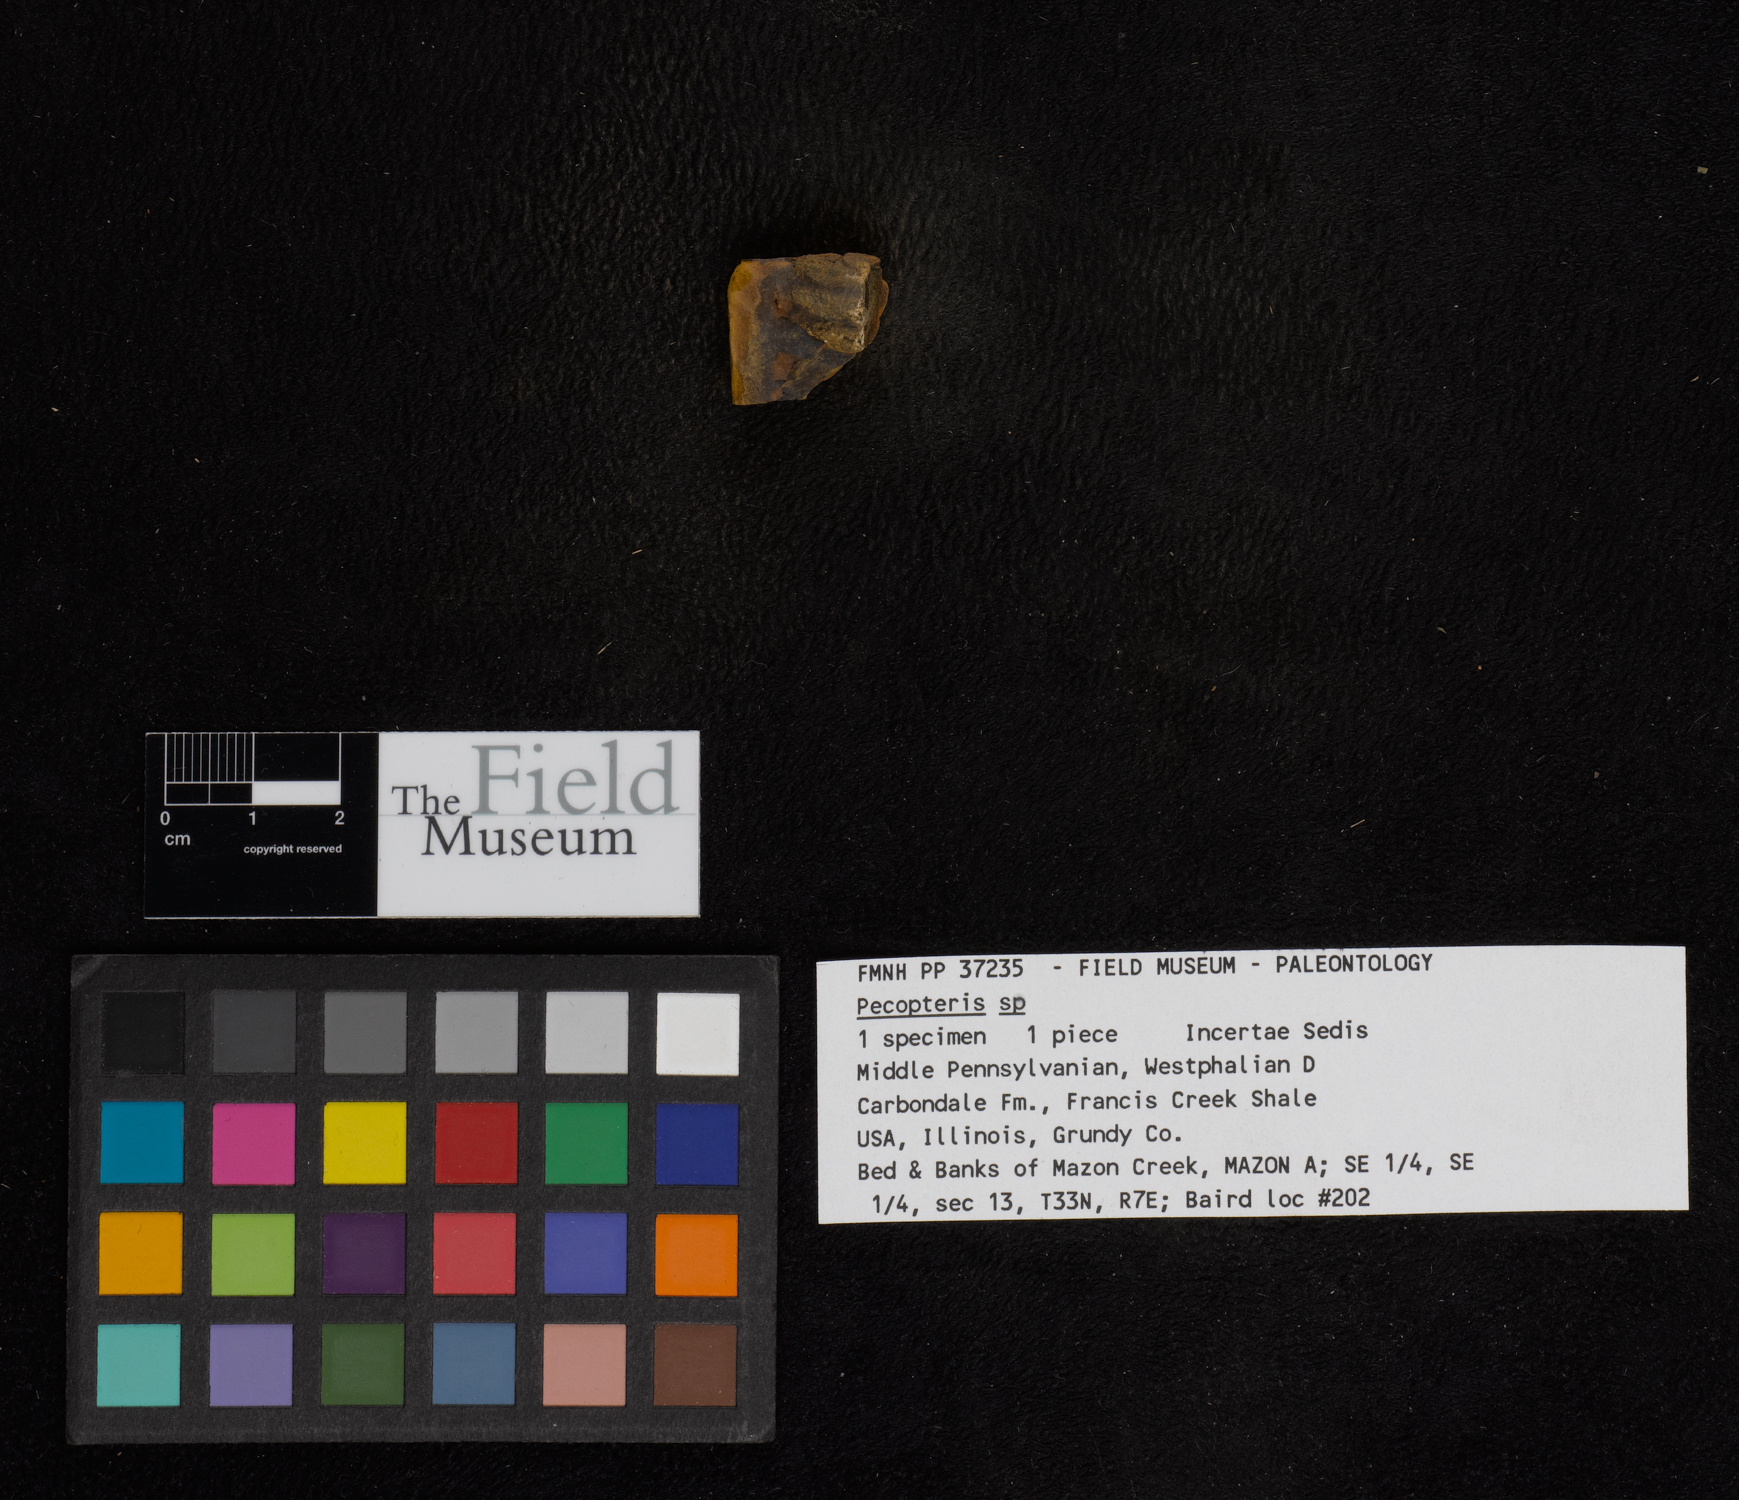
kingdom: Plantae
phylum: Tracheophyta
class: Polypodiopsida
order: Marattiales
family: Asterothecaceae
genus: Pecopteris
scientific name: Pecopteris
